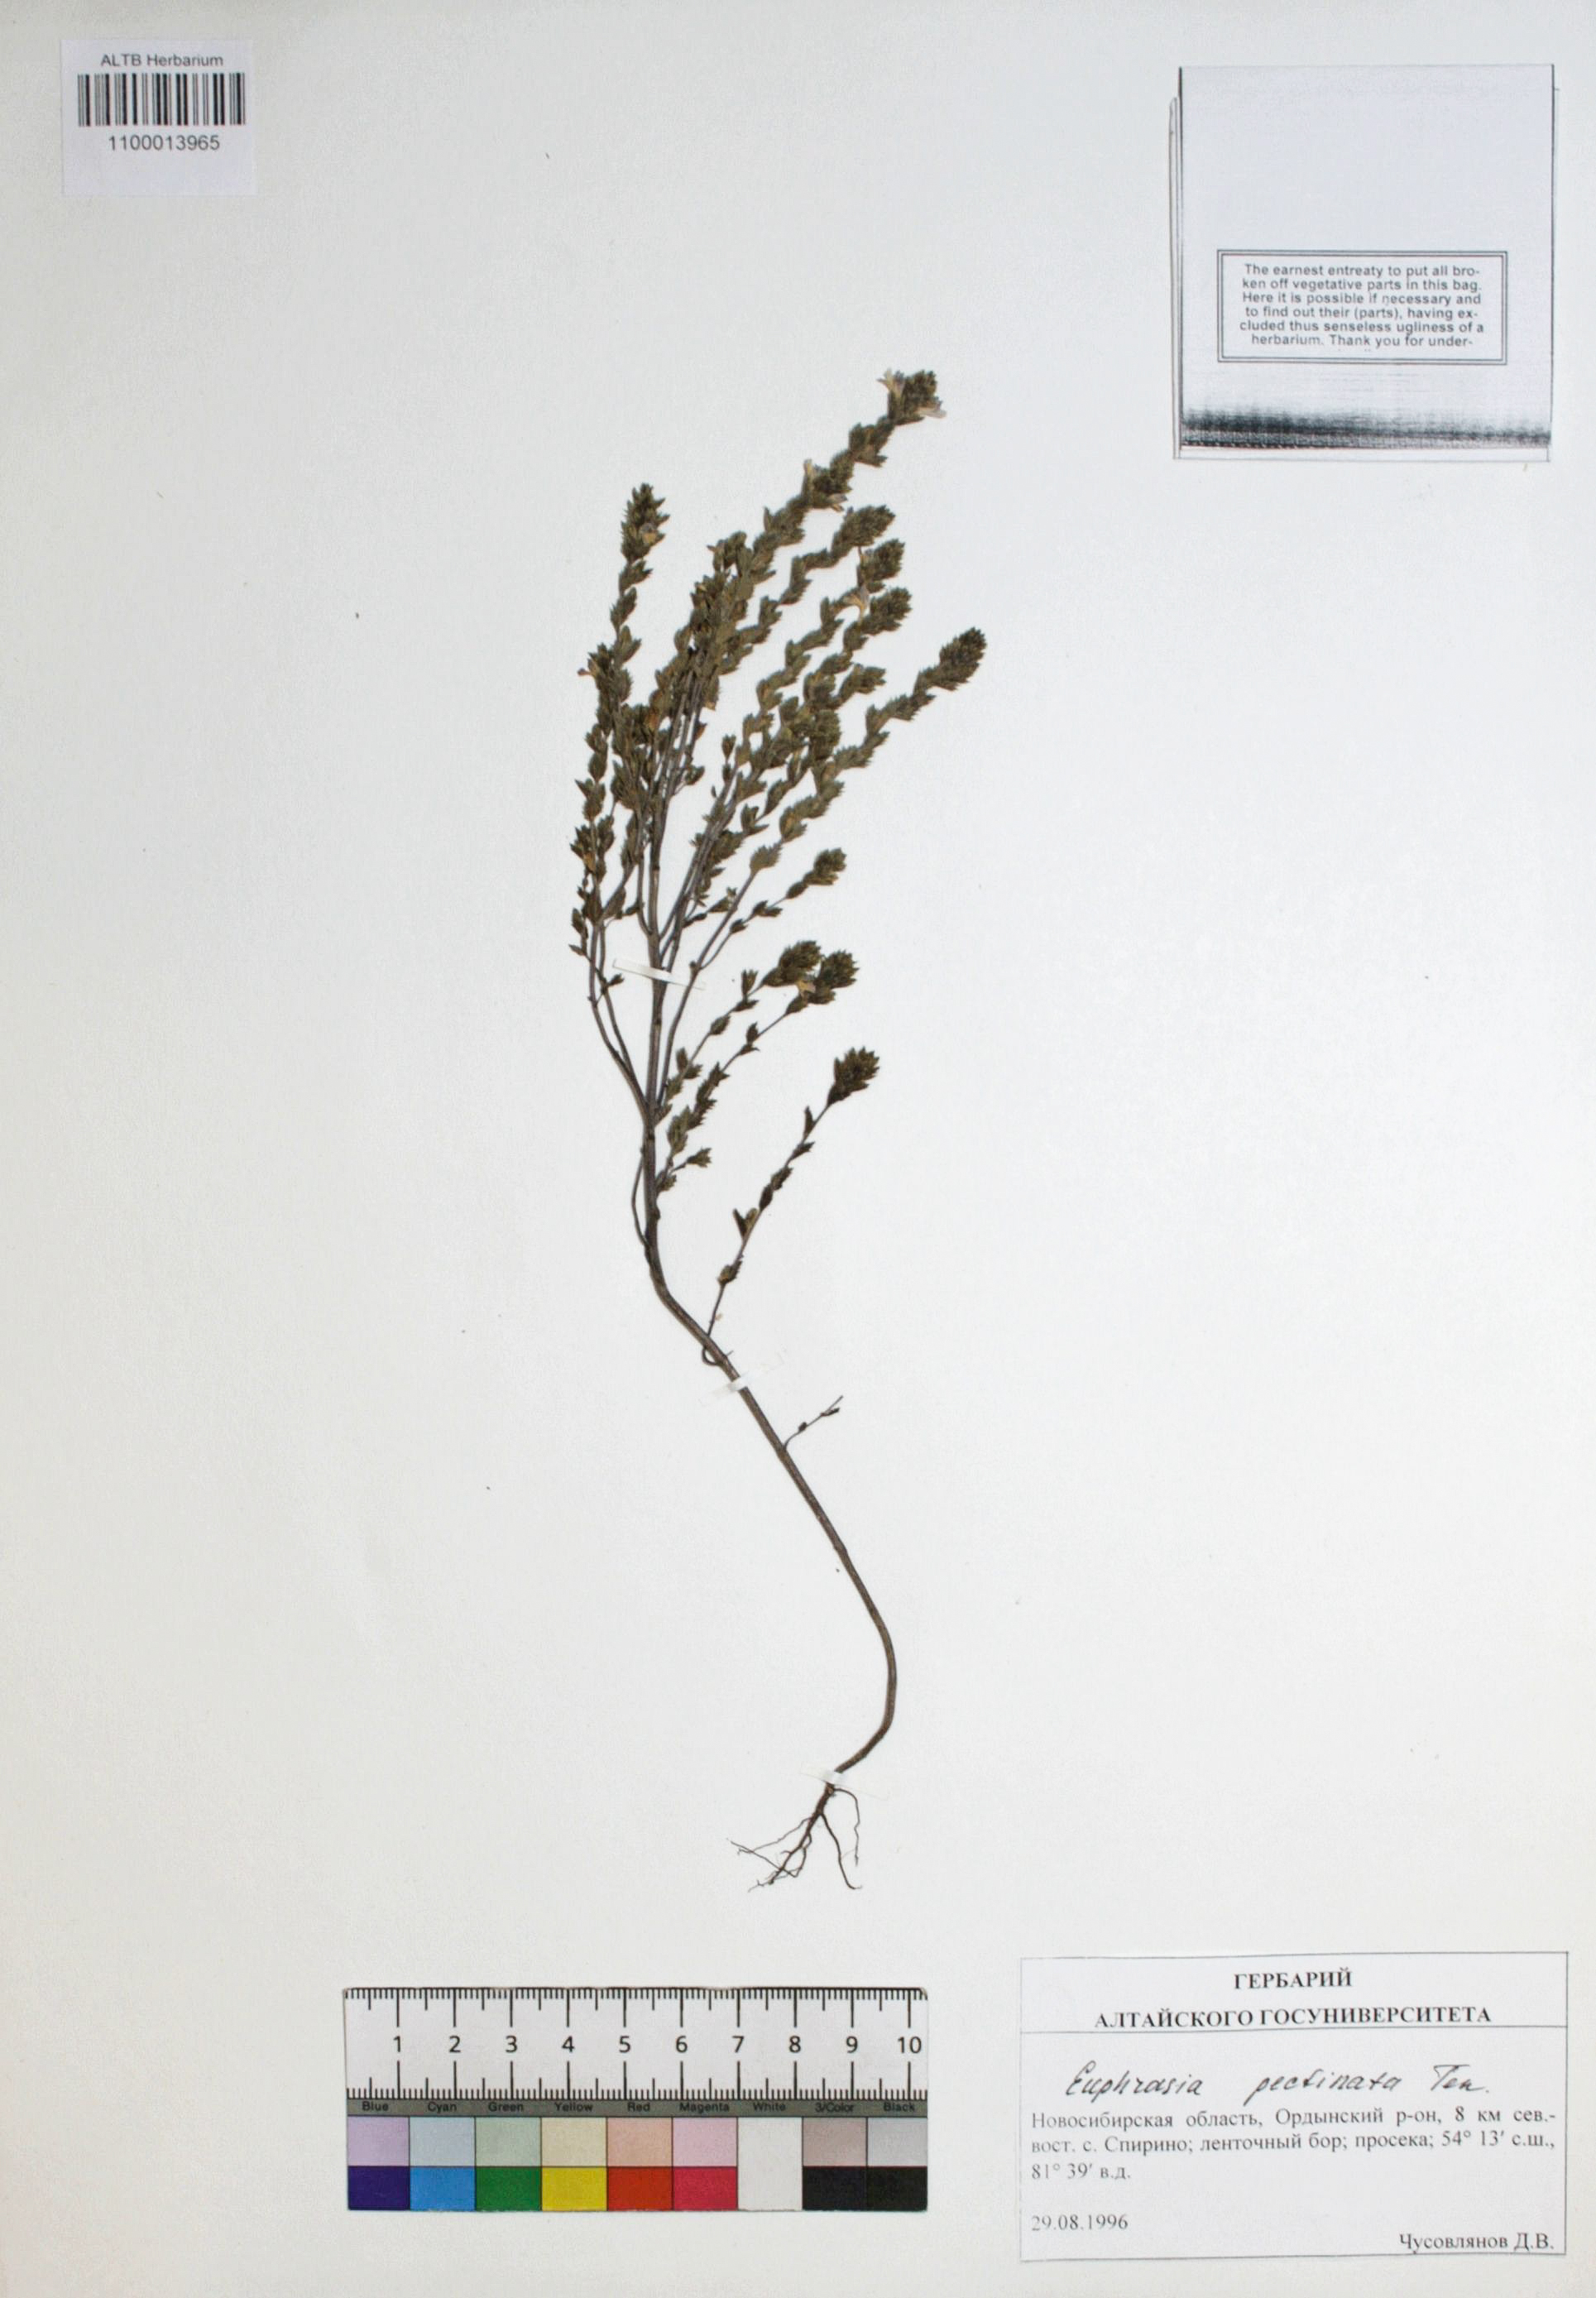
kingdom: Plantae
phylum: Tracheophyta
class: Magnoliopsida
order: Lamiales
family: Orobanchaceae
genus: Euphrasia
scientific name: Euphrasia pectinata
